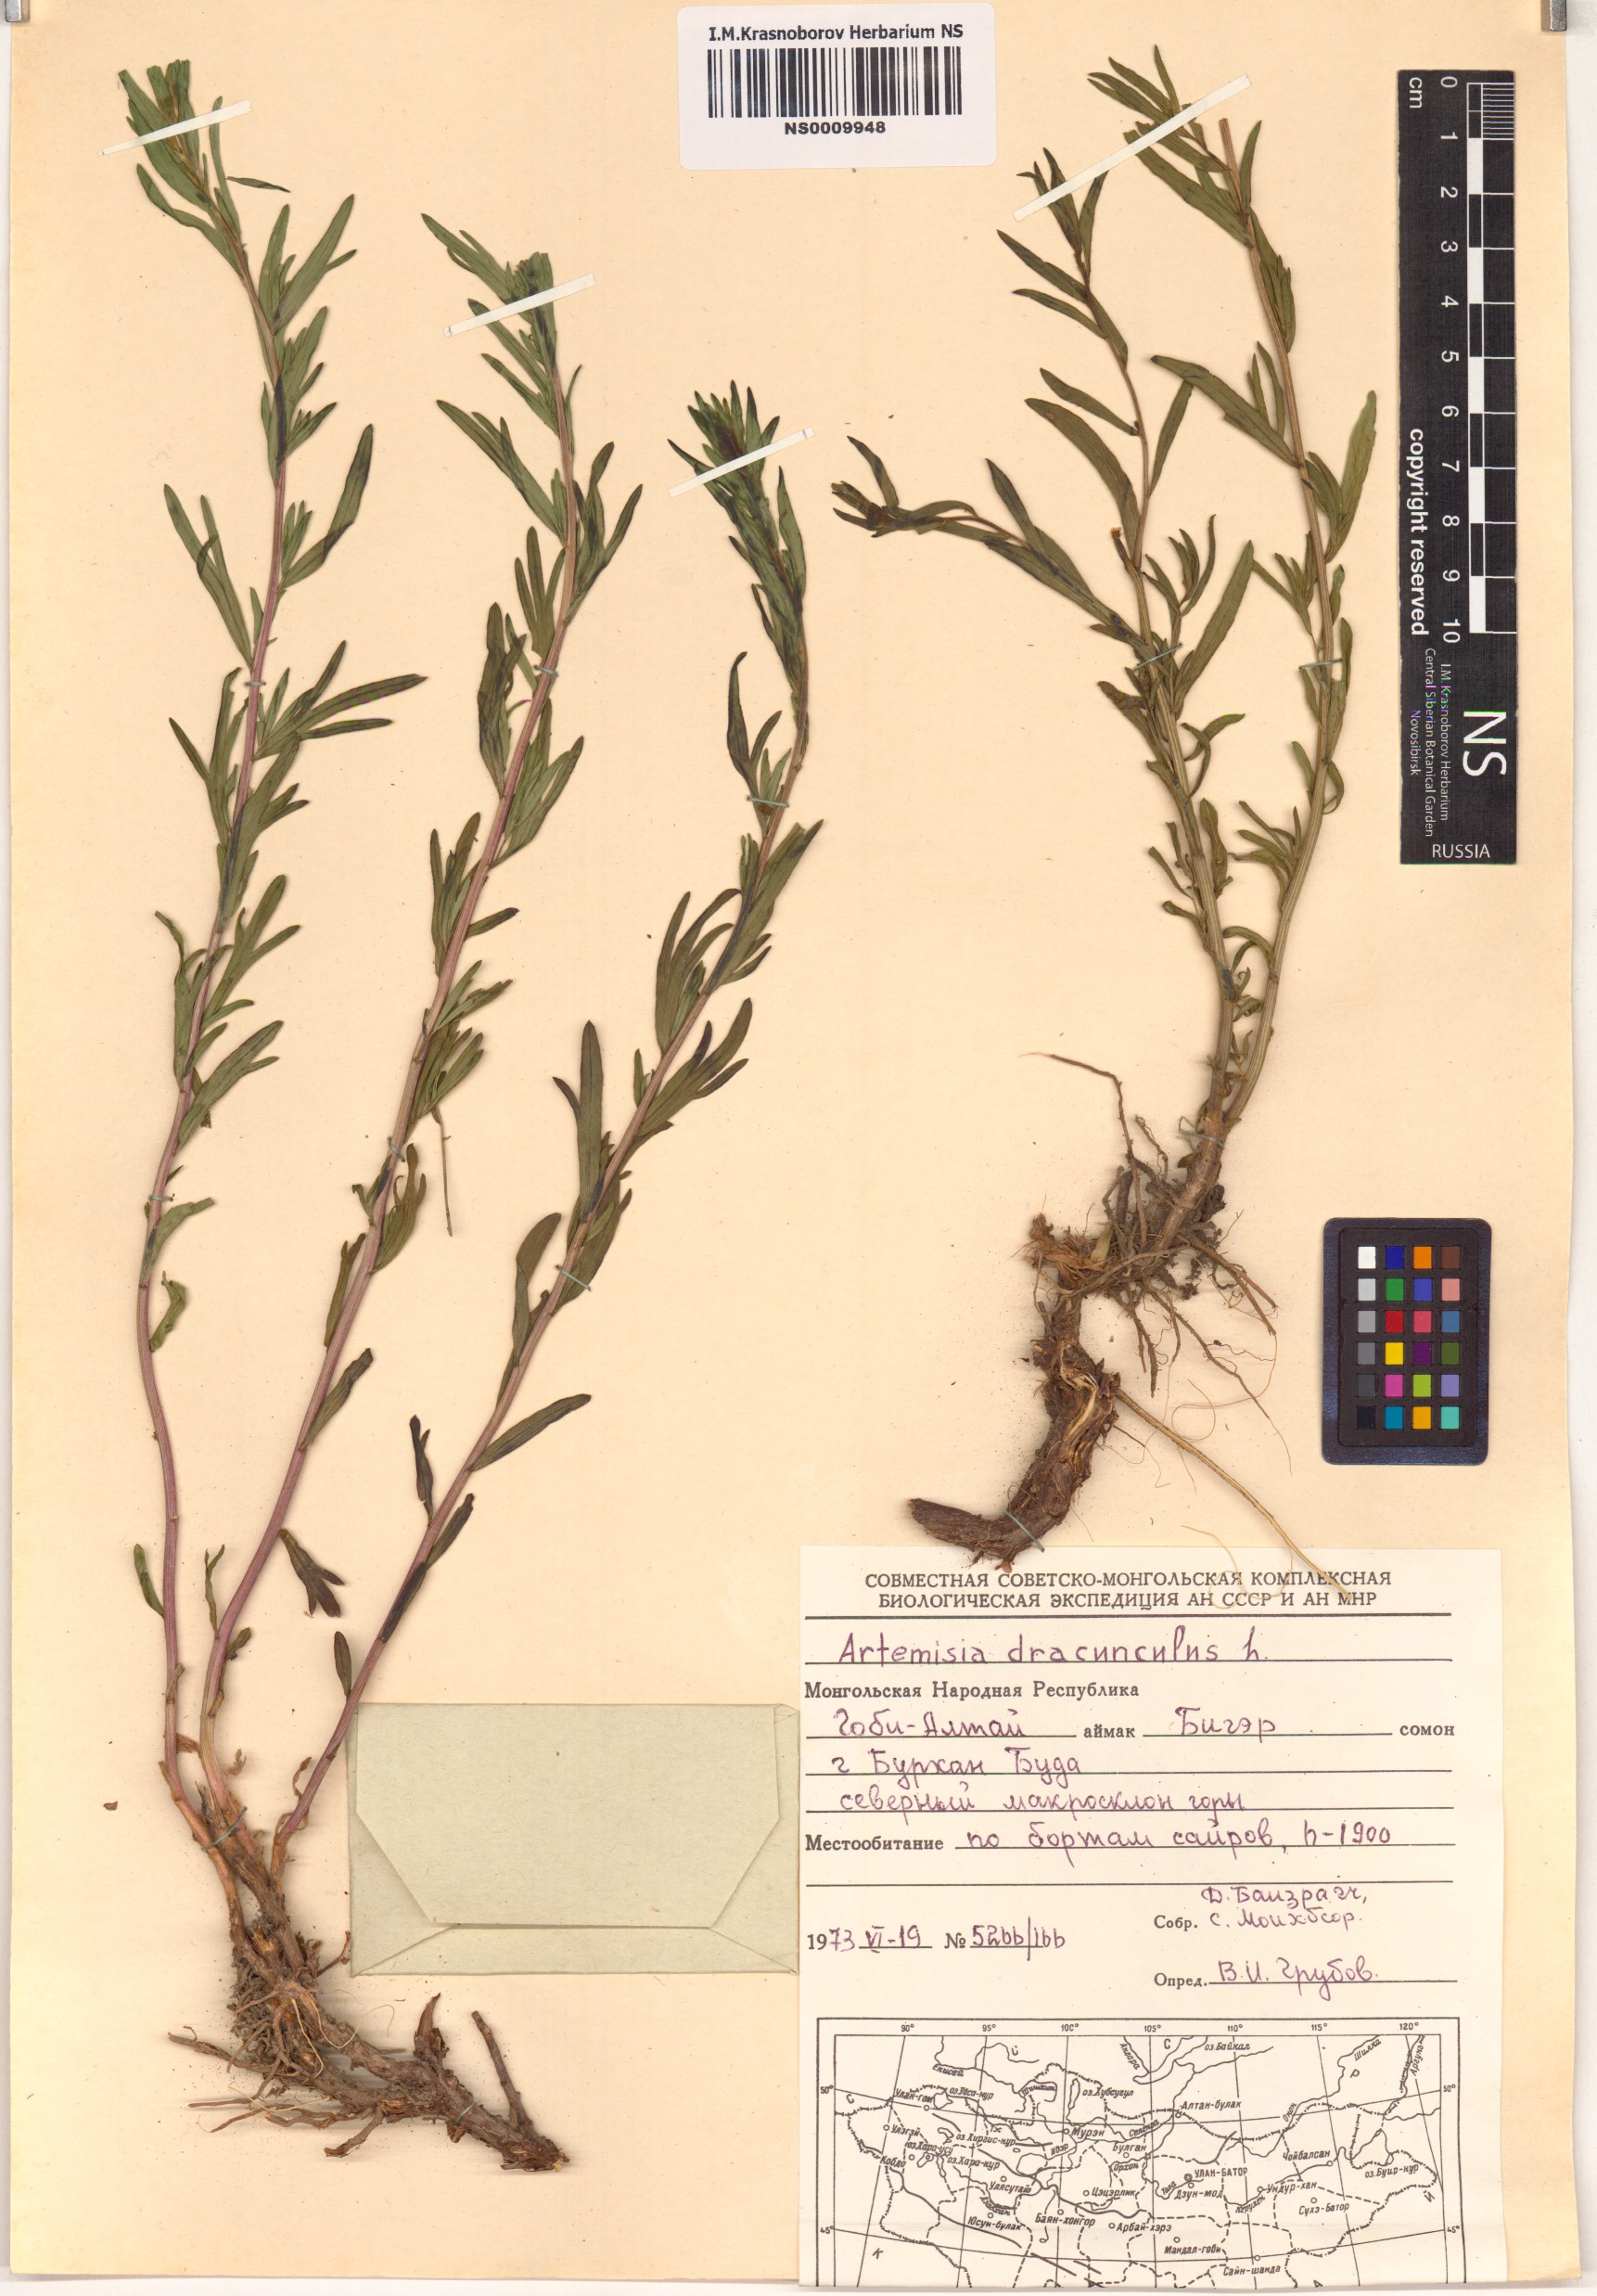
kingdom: Plantae
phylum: Tracheophyta
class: Magnoliopsida
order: Asterales
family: Asteraceae
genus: Artemisia
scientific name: Artemisia dracunculus
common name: Tarragon
